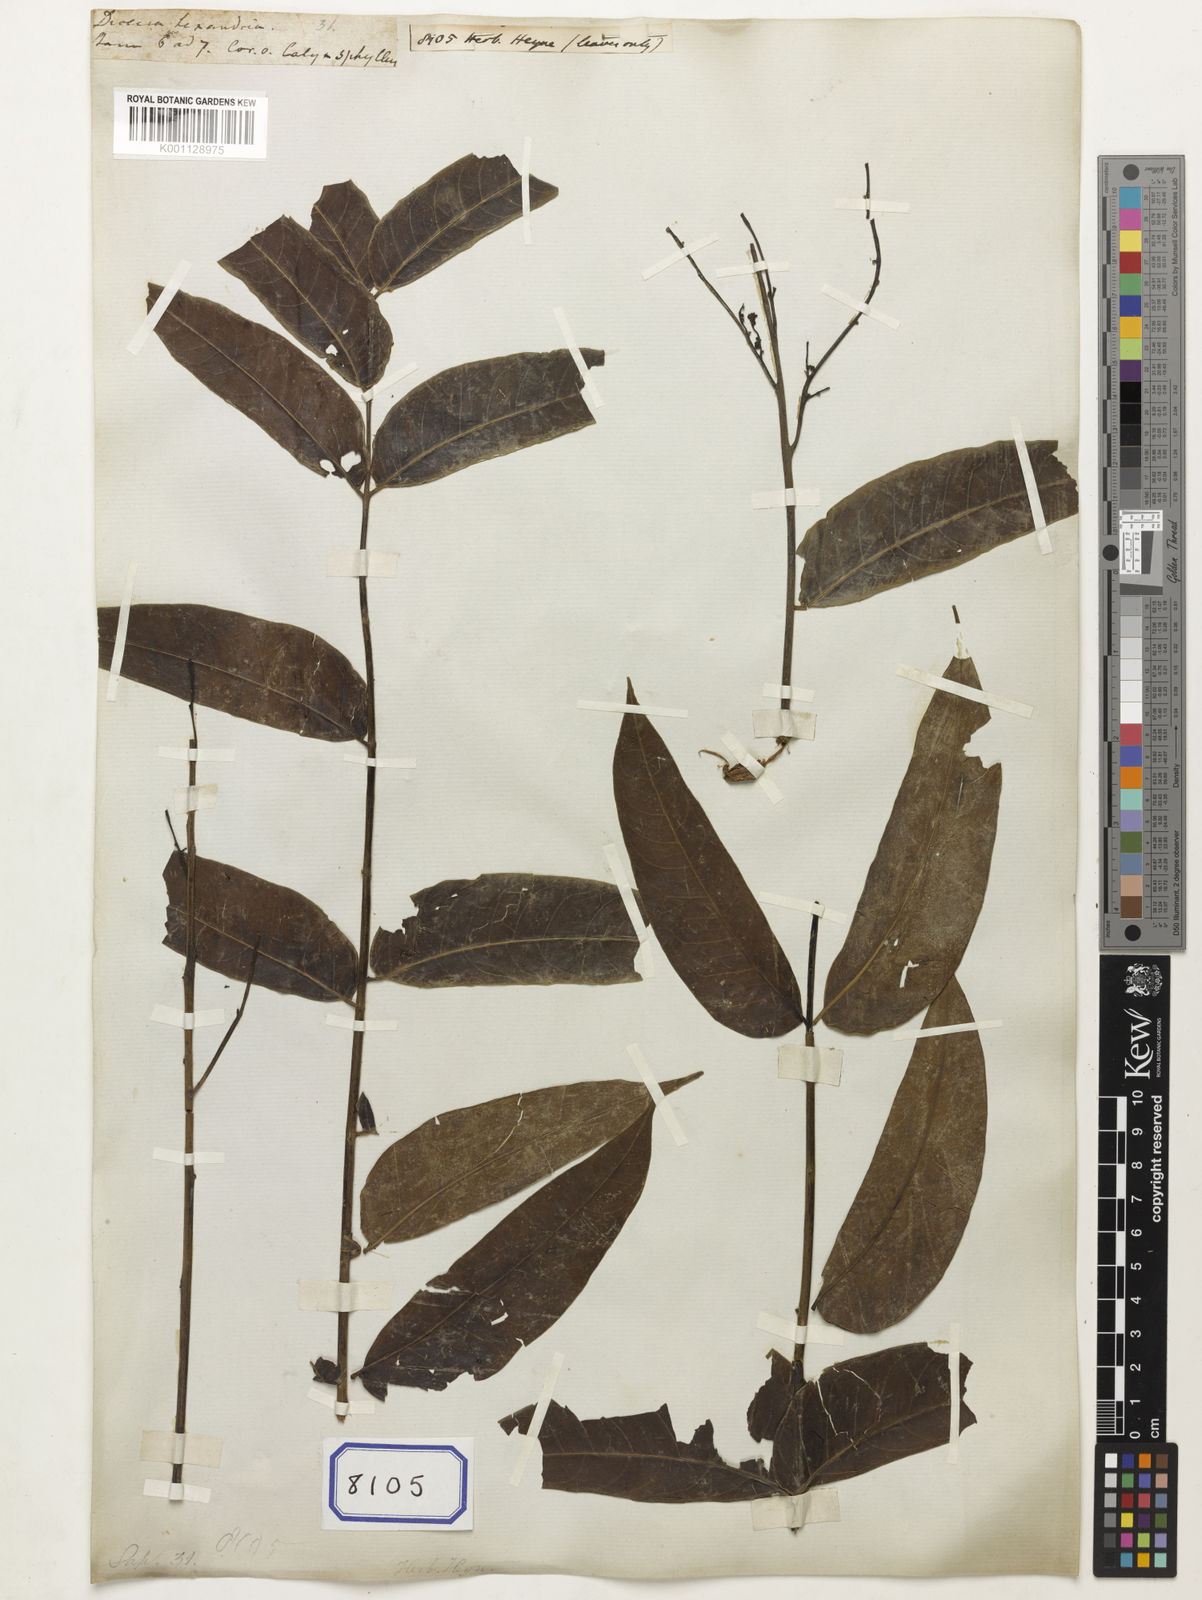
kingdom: Plantae
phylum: Tracheophyta
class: Magnoliopsida
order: Sapindales
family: Sapindaceae
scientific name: Sapindaceae
